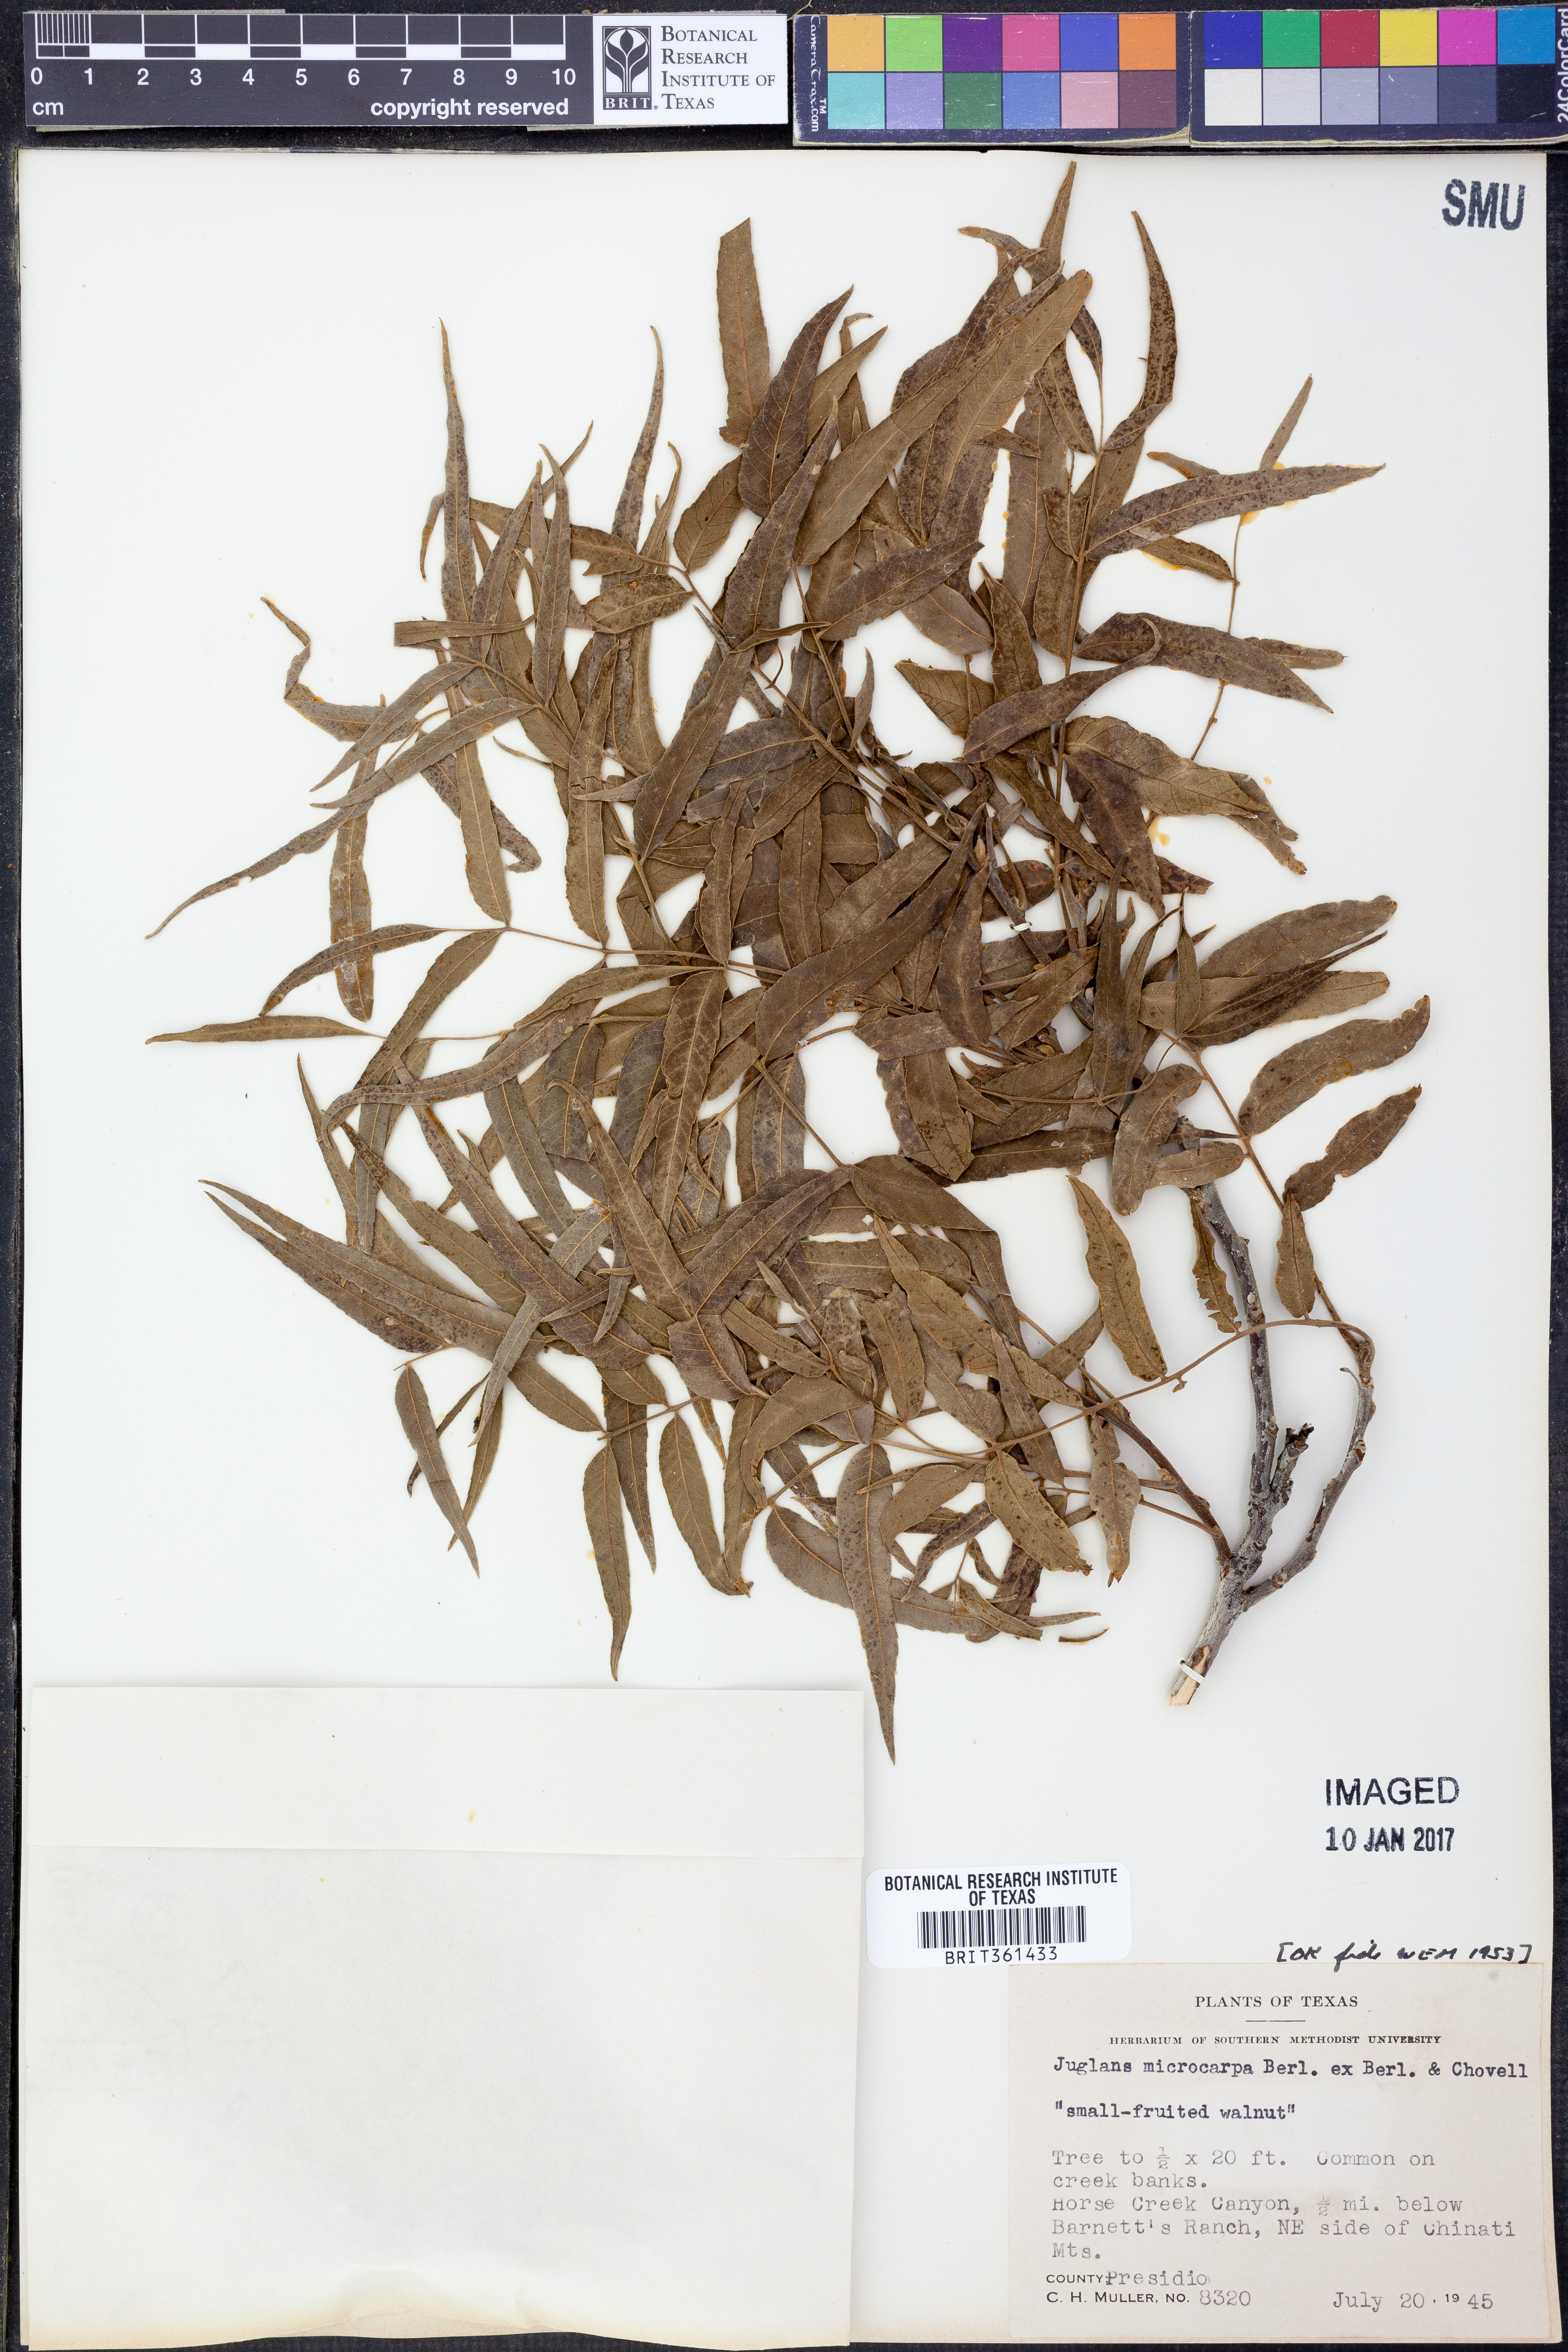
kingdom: Plantae
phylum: Tracheophyta
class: Magnoliopsida
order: Fagales
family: Juglandaceae
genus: Juglans
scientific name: Juglans microcarpa
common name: Texas walnut
